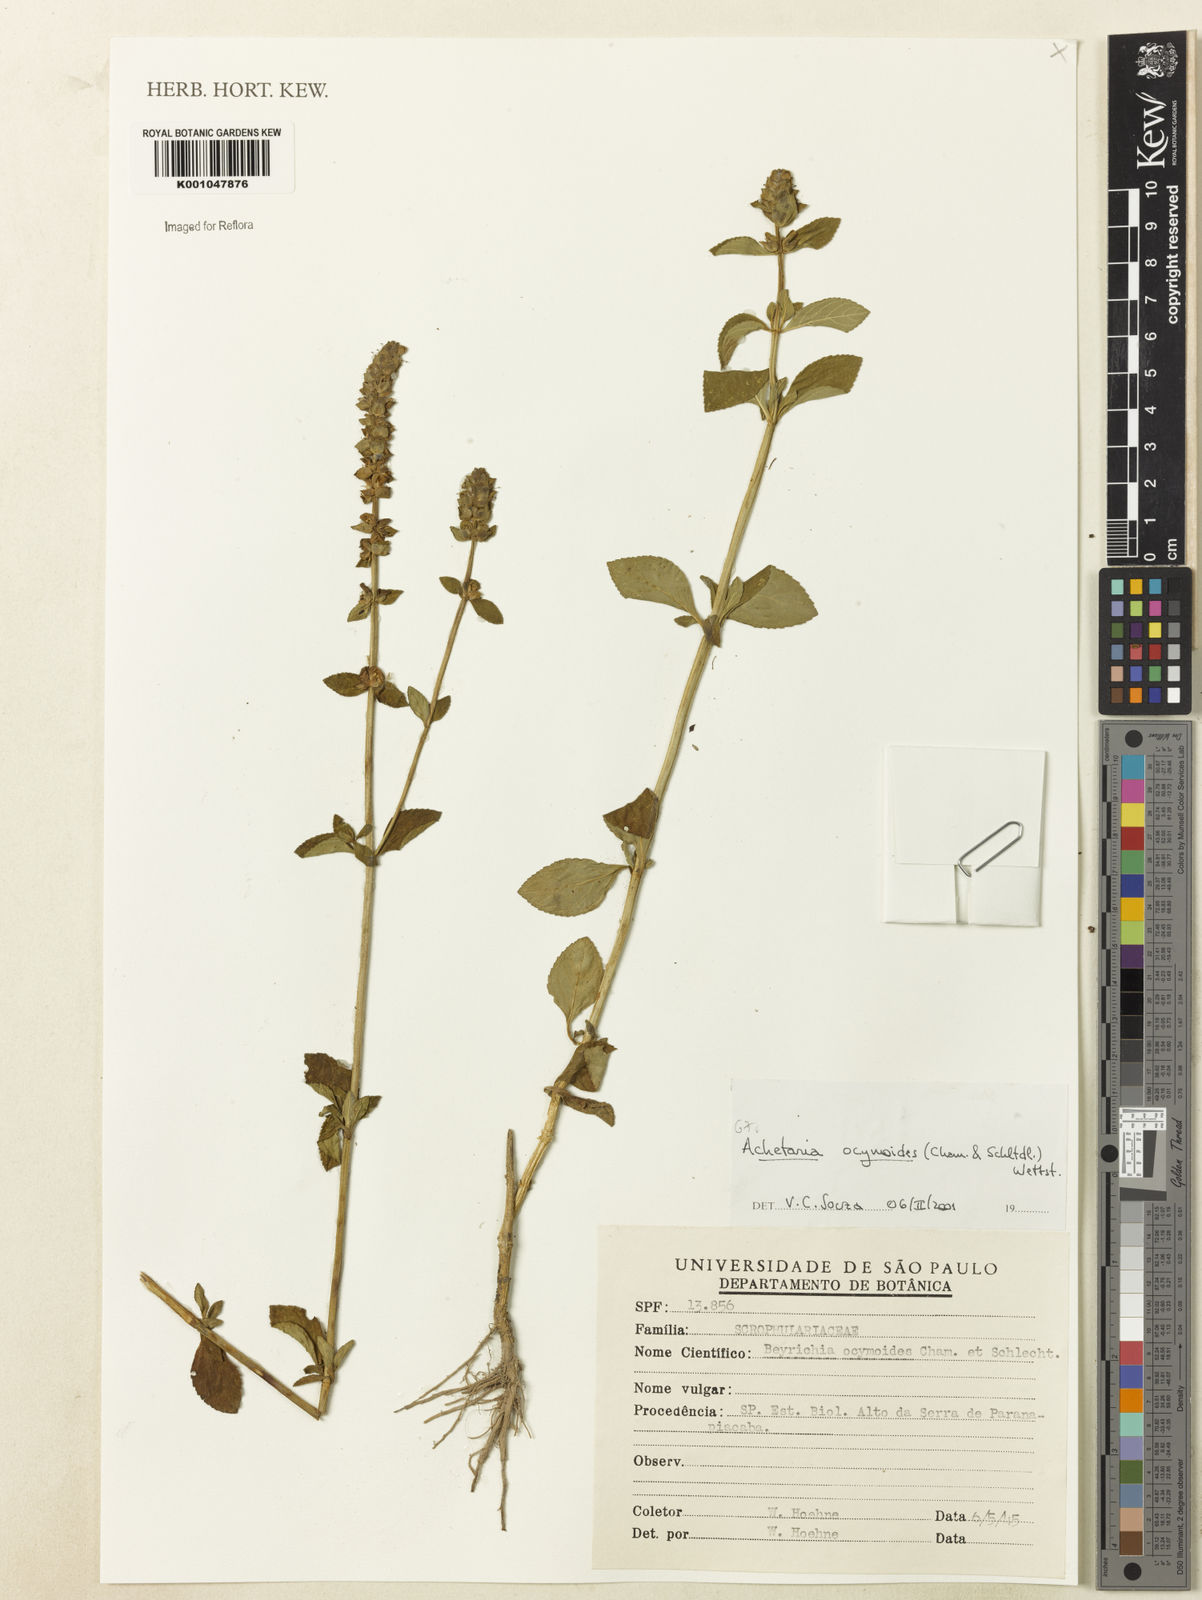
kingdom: Plantae
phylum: Tracheophyta
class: Magnoliopsida
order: Lamiales
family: Plantaginaceae
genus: Matourea
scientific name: Matourea ocymoides
